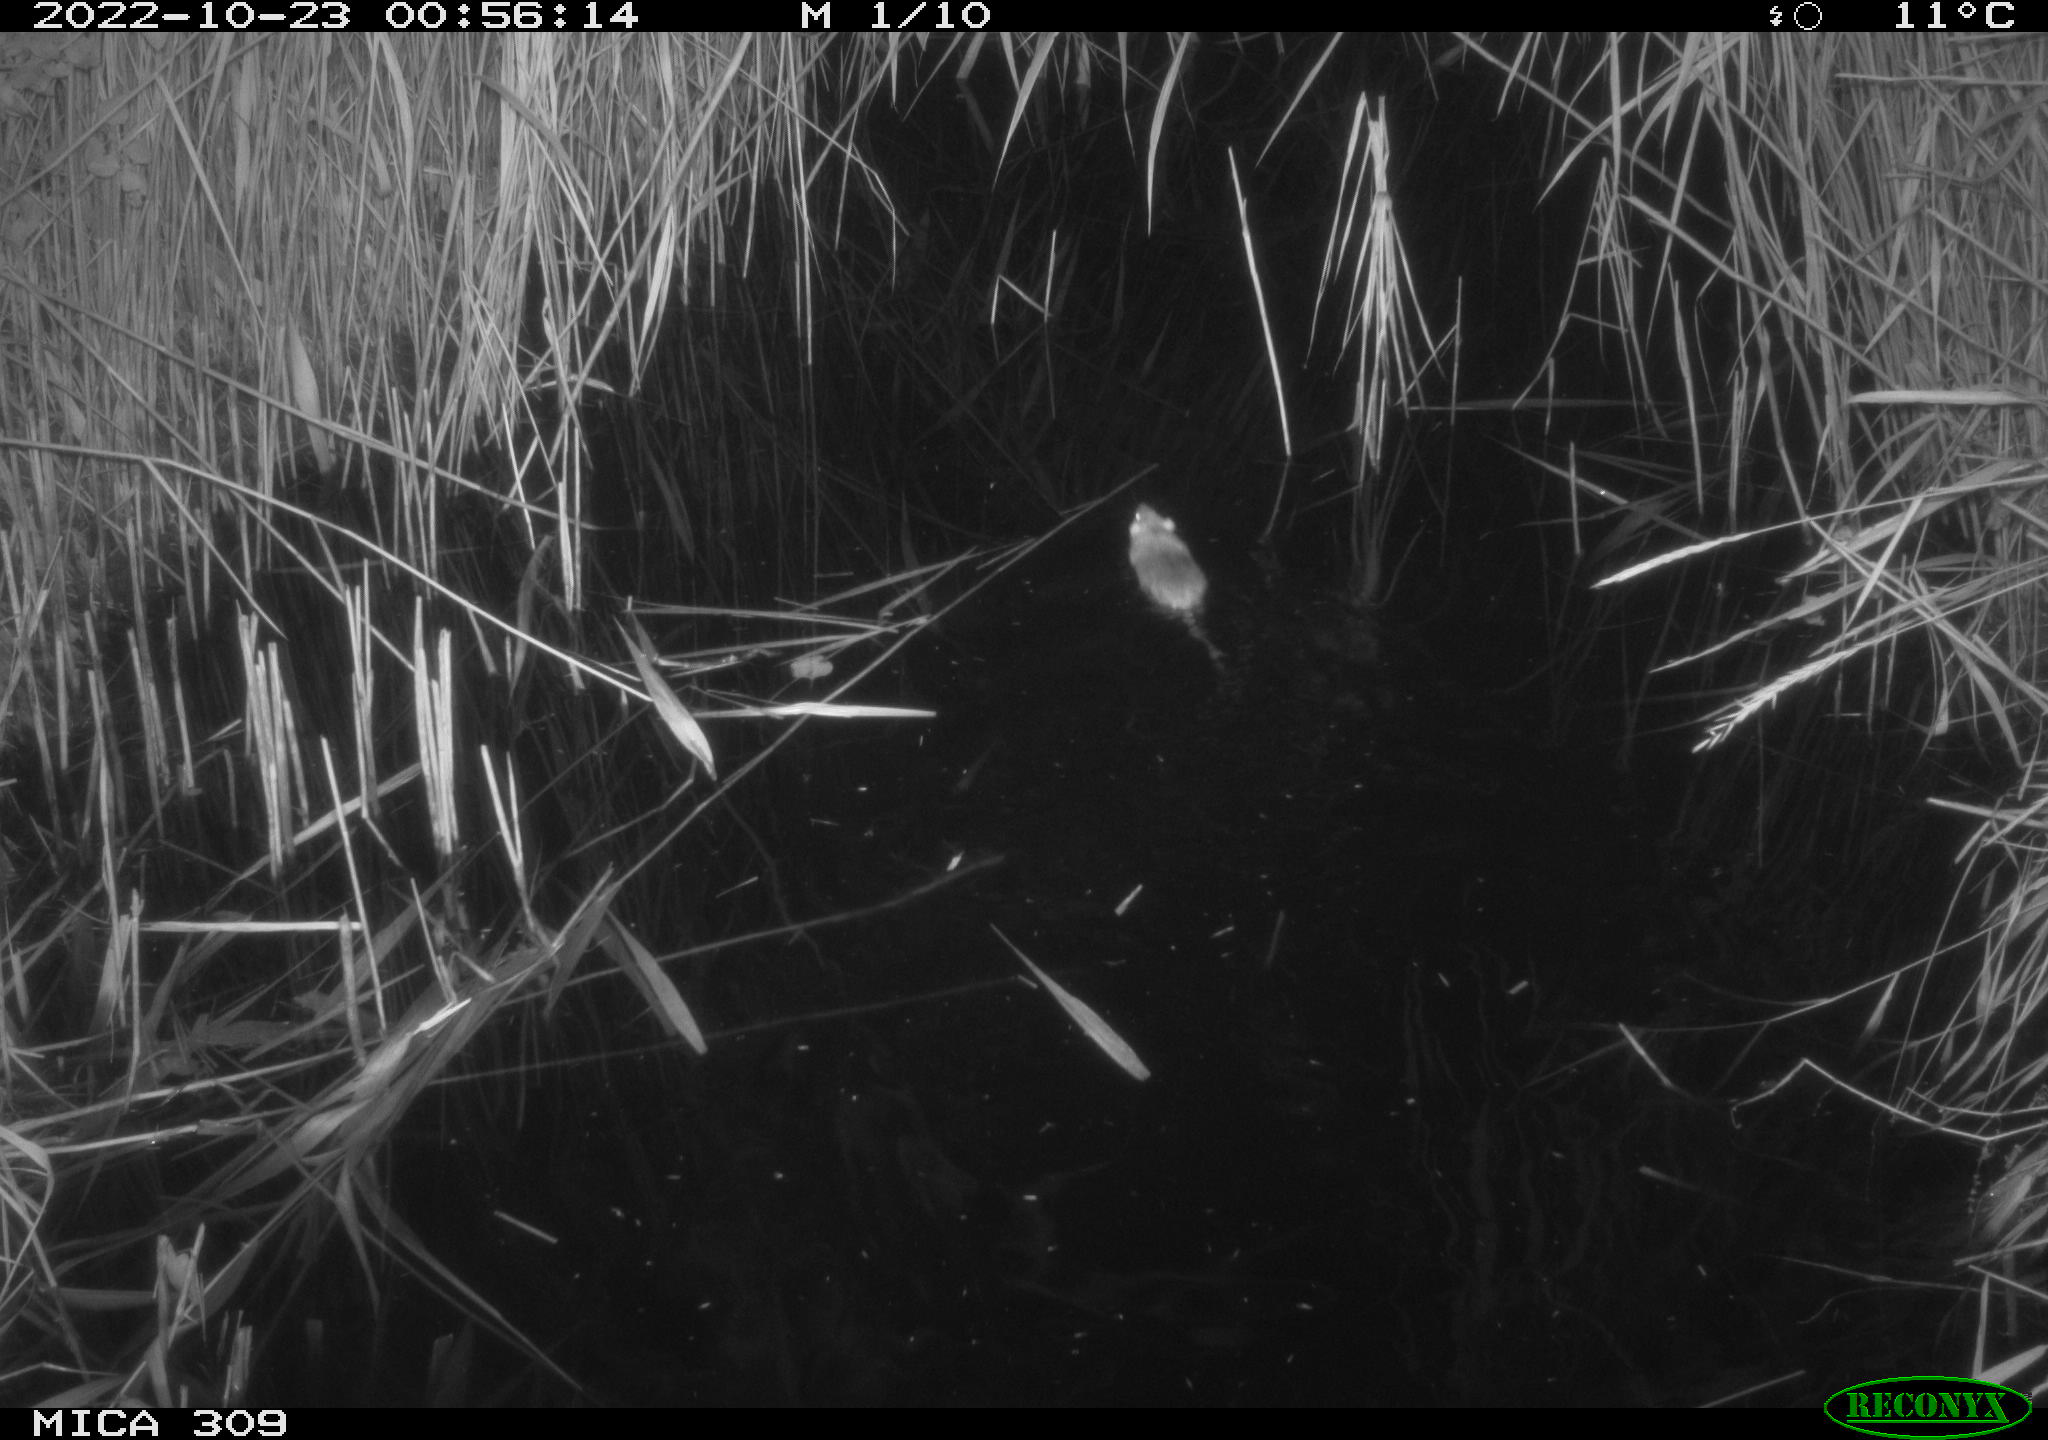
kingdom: Animalia
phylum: Chordata
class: Mammalia
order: Rodentia
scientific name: Rodentia
